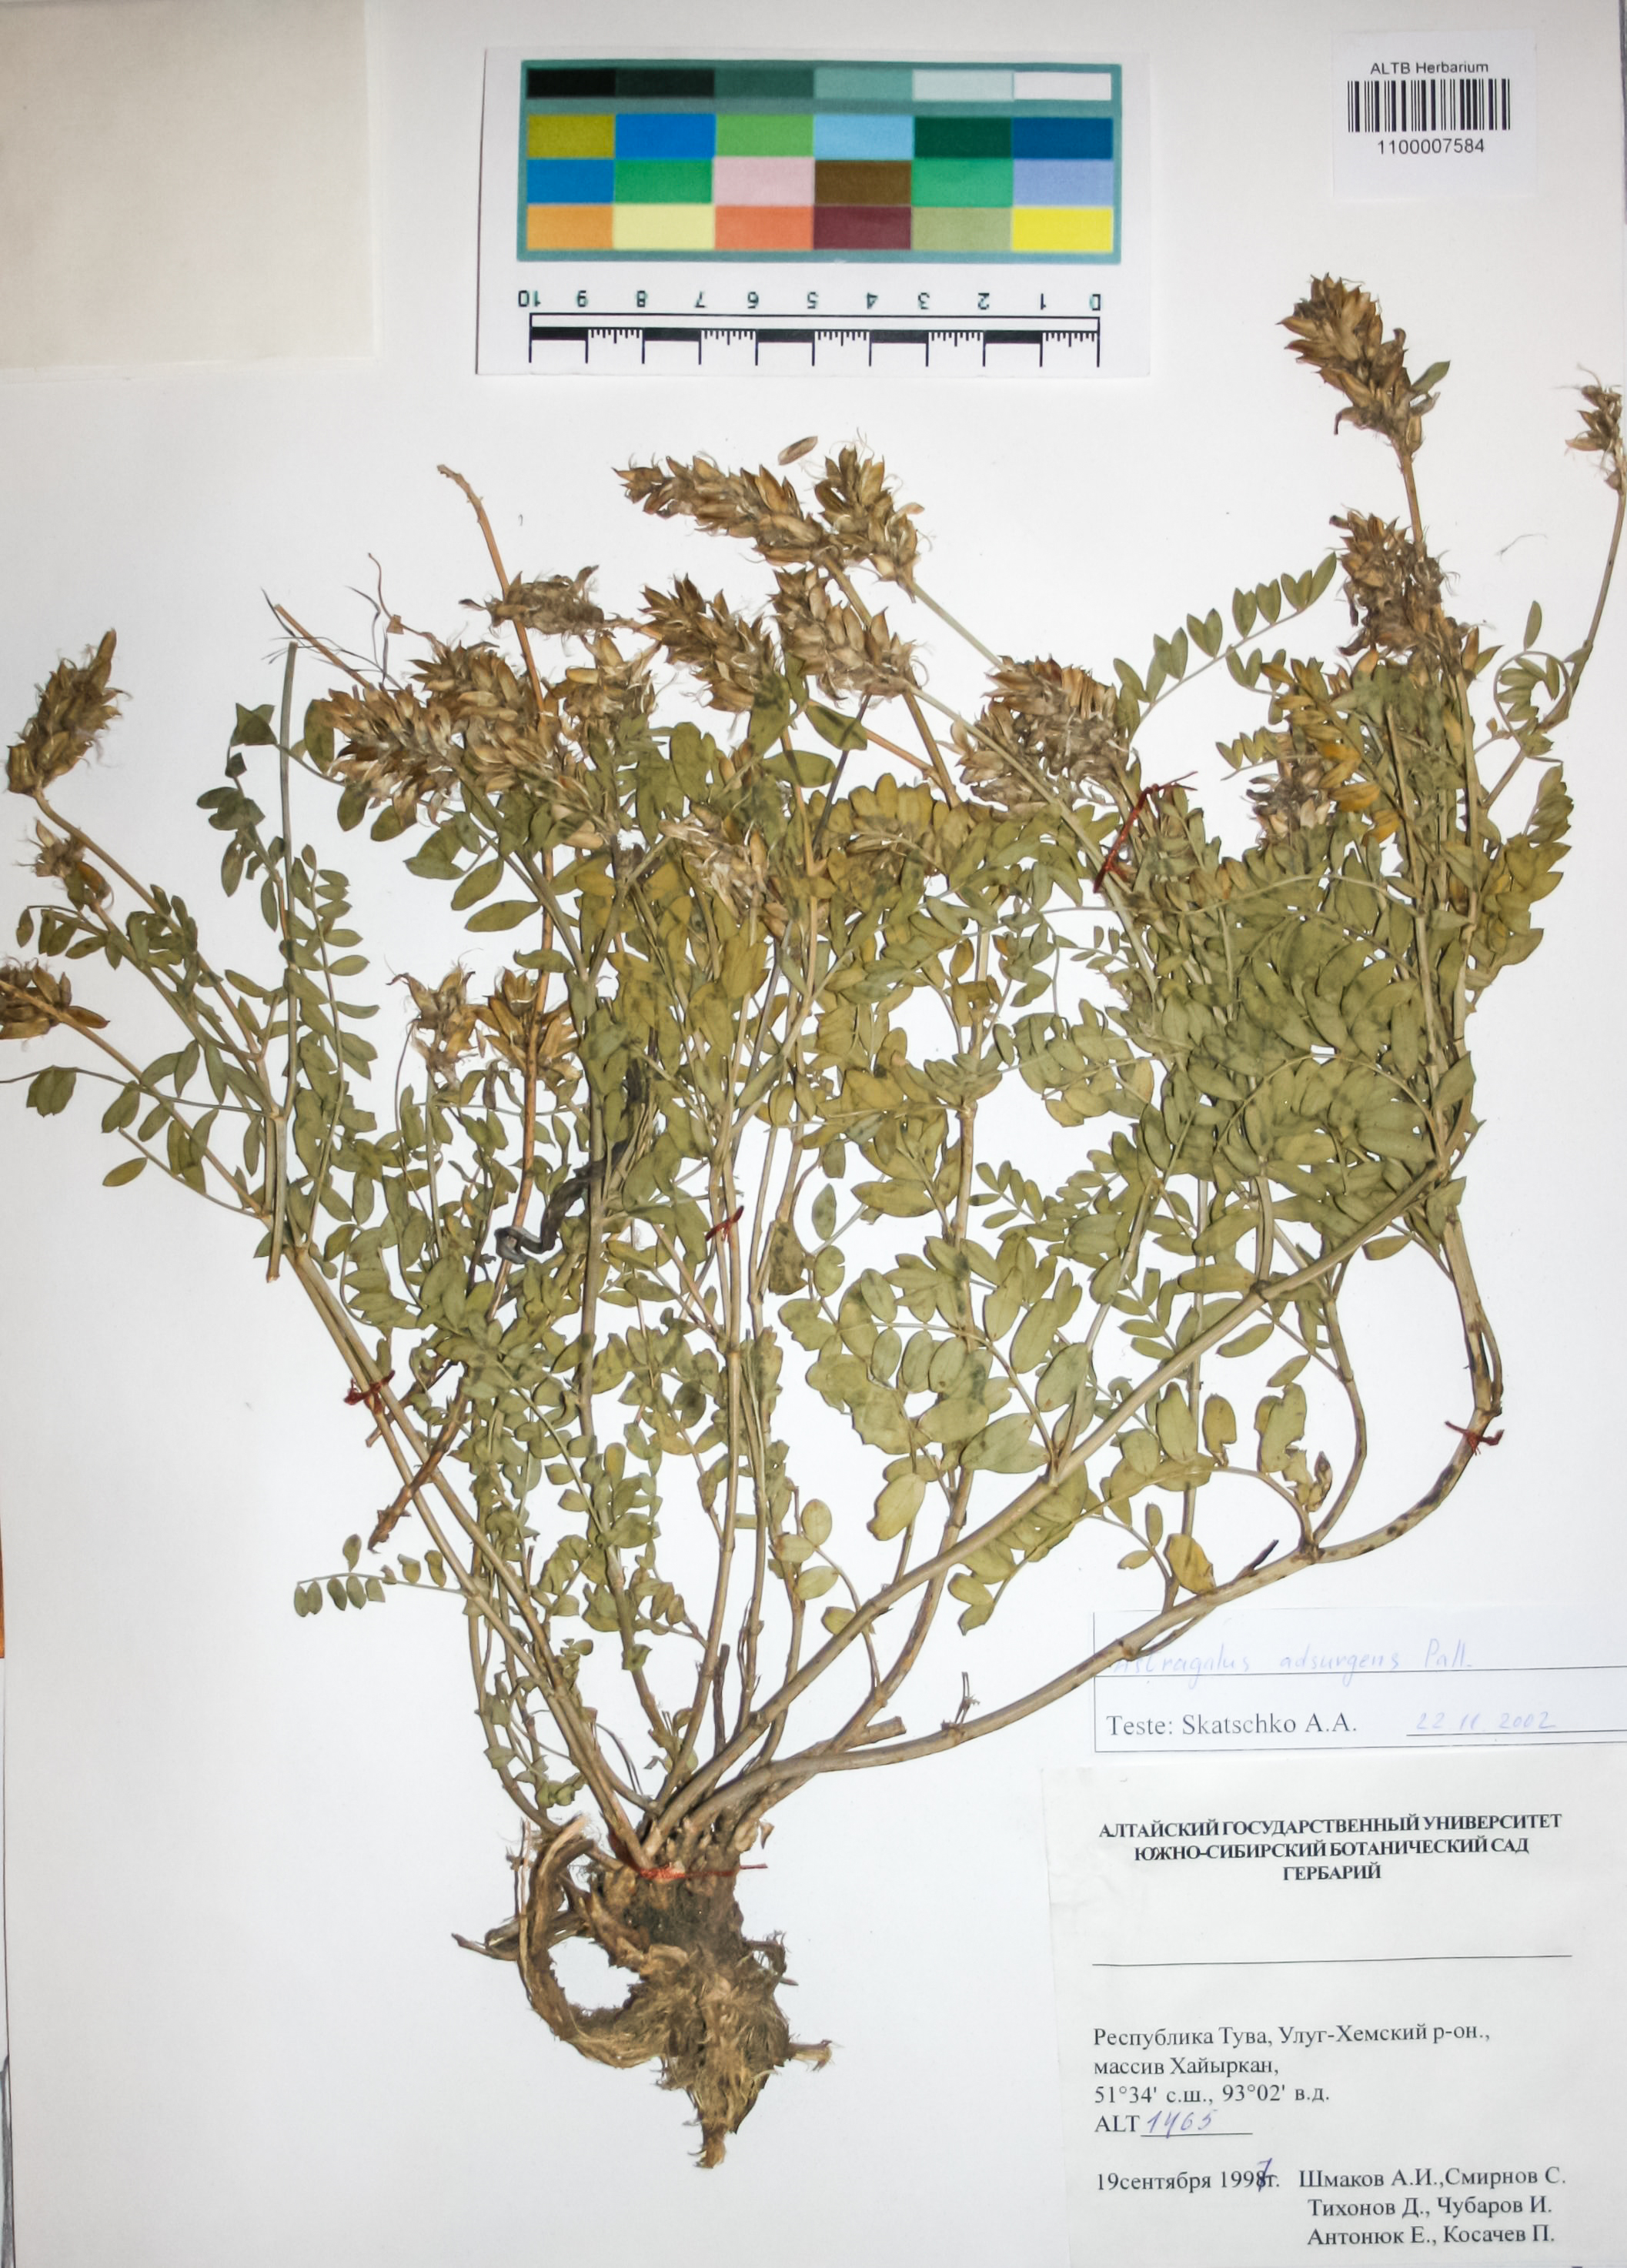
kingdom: Plantae
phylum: Tracheophyta
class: Magnoliopsida
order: Fabales
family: Fabaceae
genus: Astragalus
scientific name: Astragalus laxmannii
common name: Laxmann's milk-vetch
